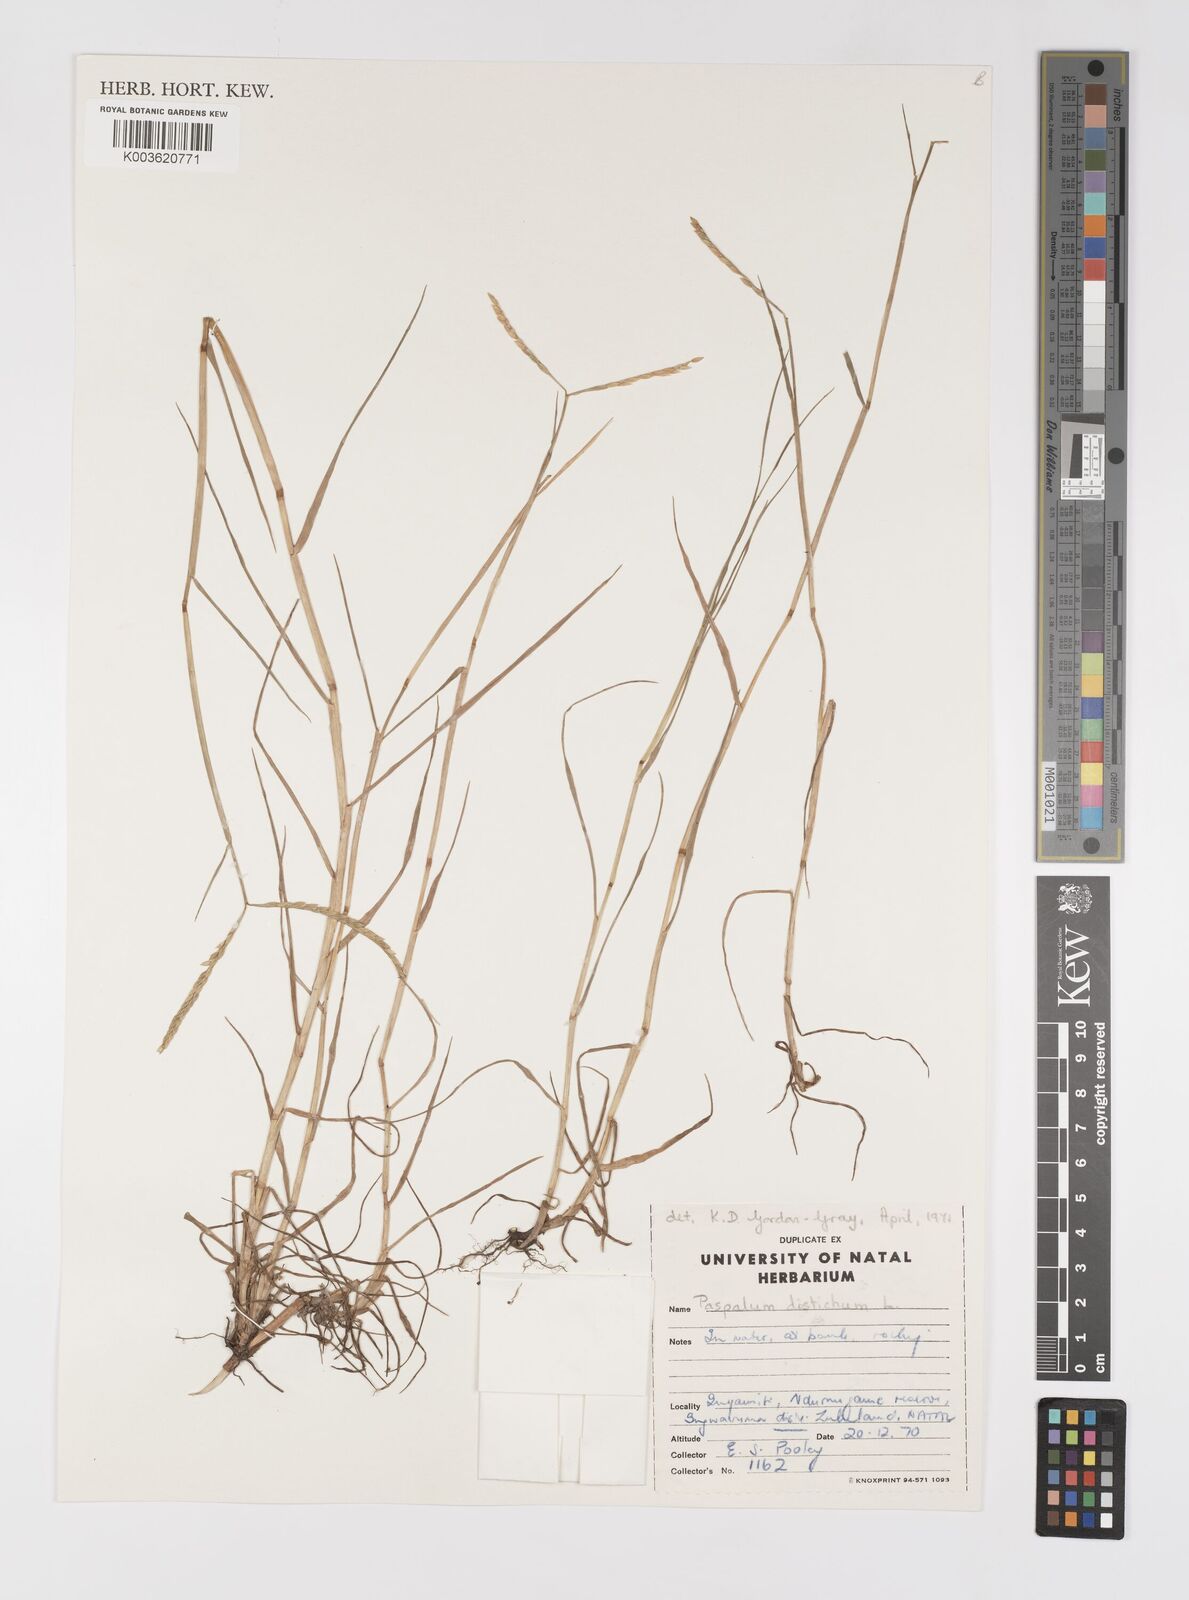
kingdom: Plantae
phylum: Tracheophyta
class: Liliopsida
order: Poales
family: Poaceae
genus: Paspalum
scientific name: Paspalum vaginatum
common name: Seashore paspalum
